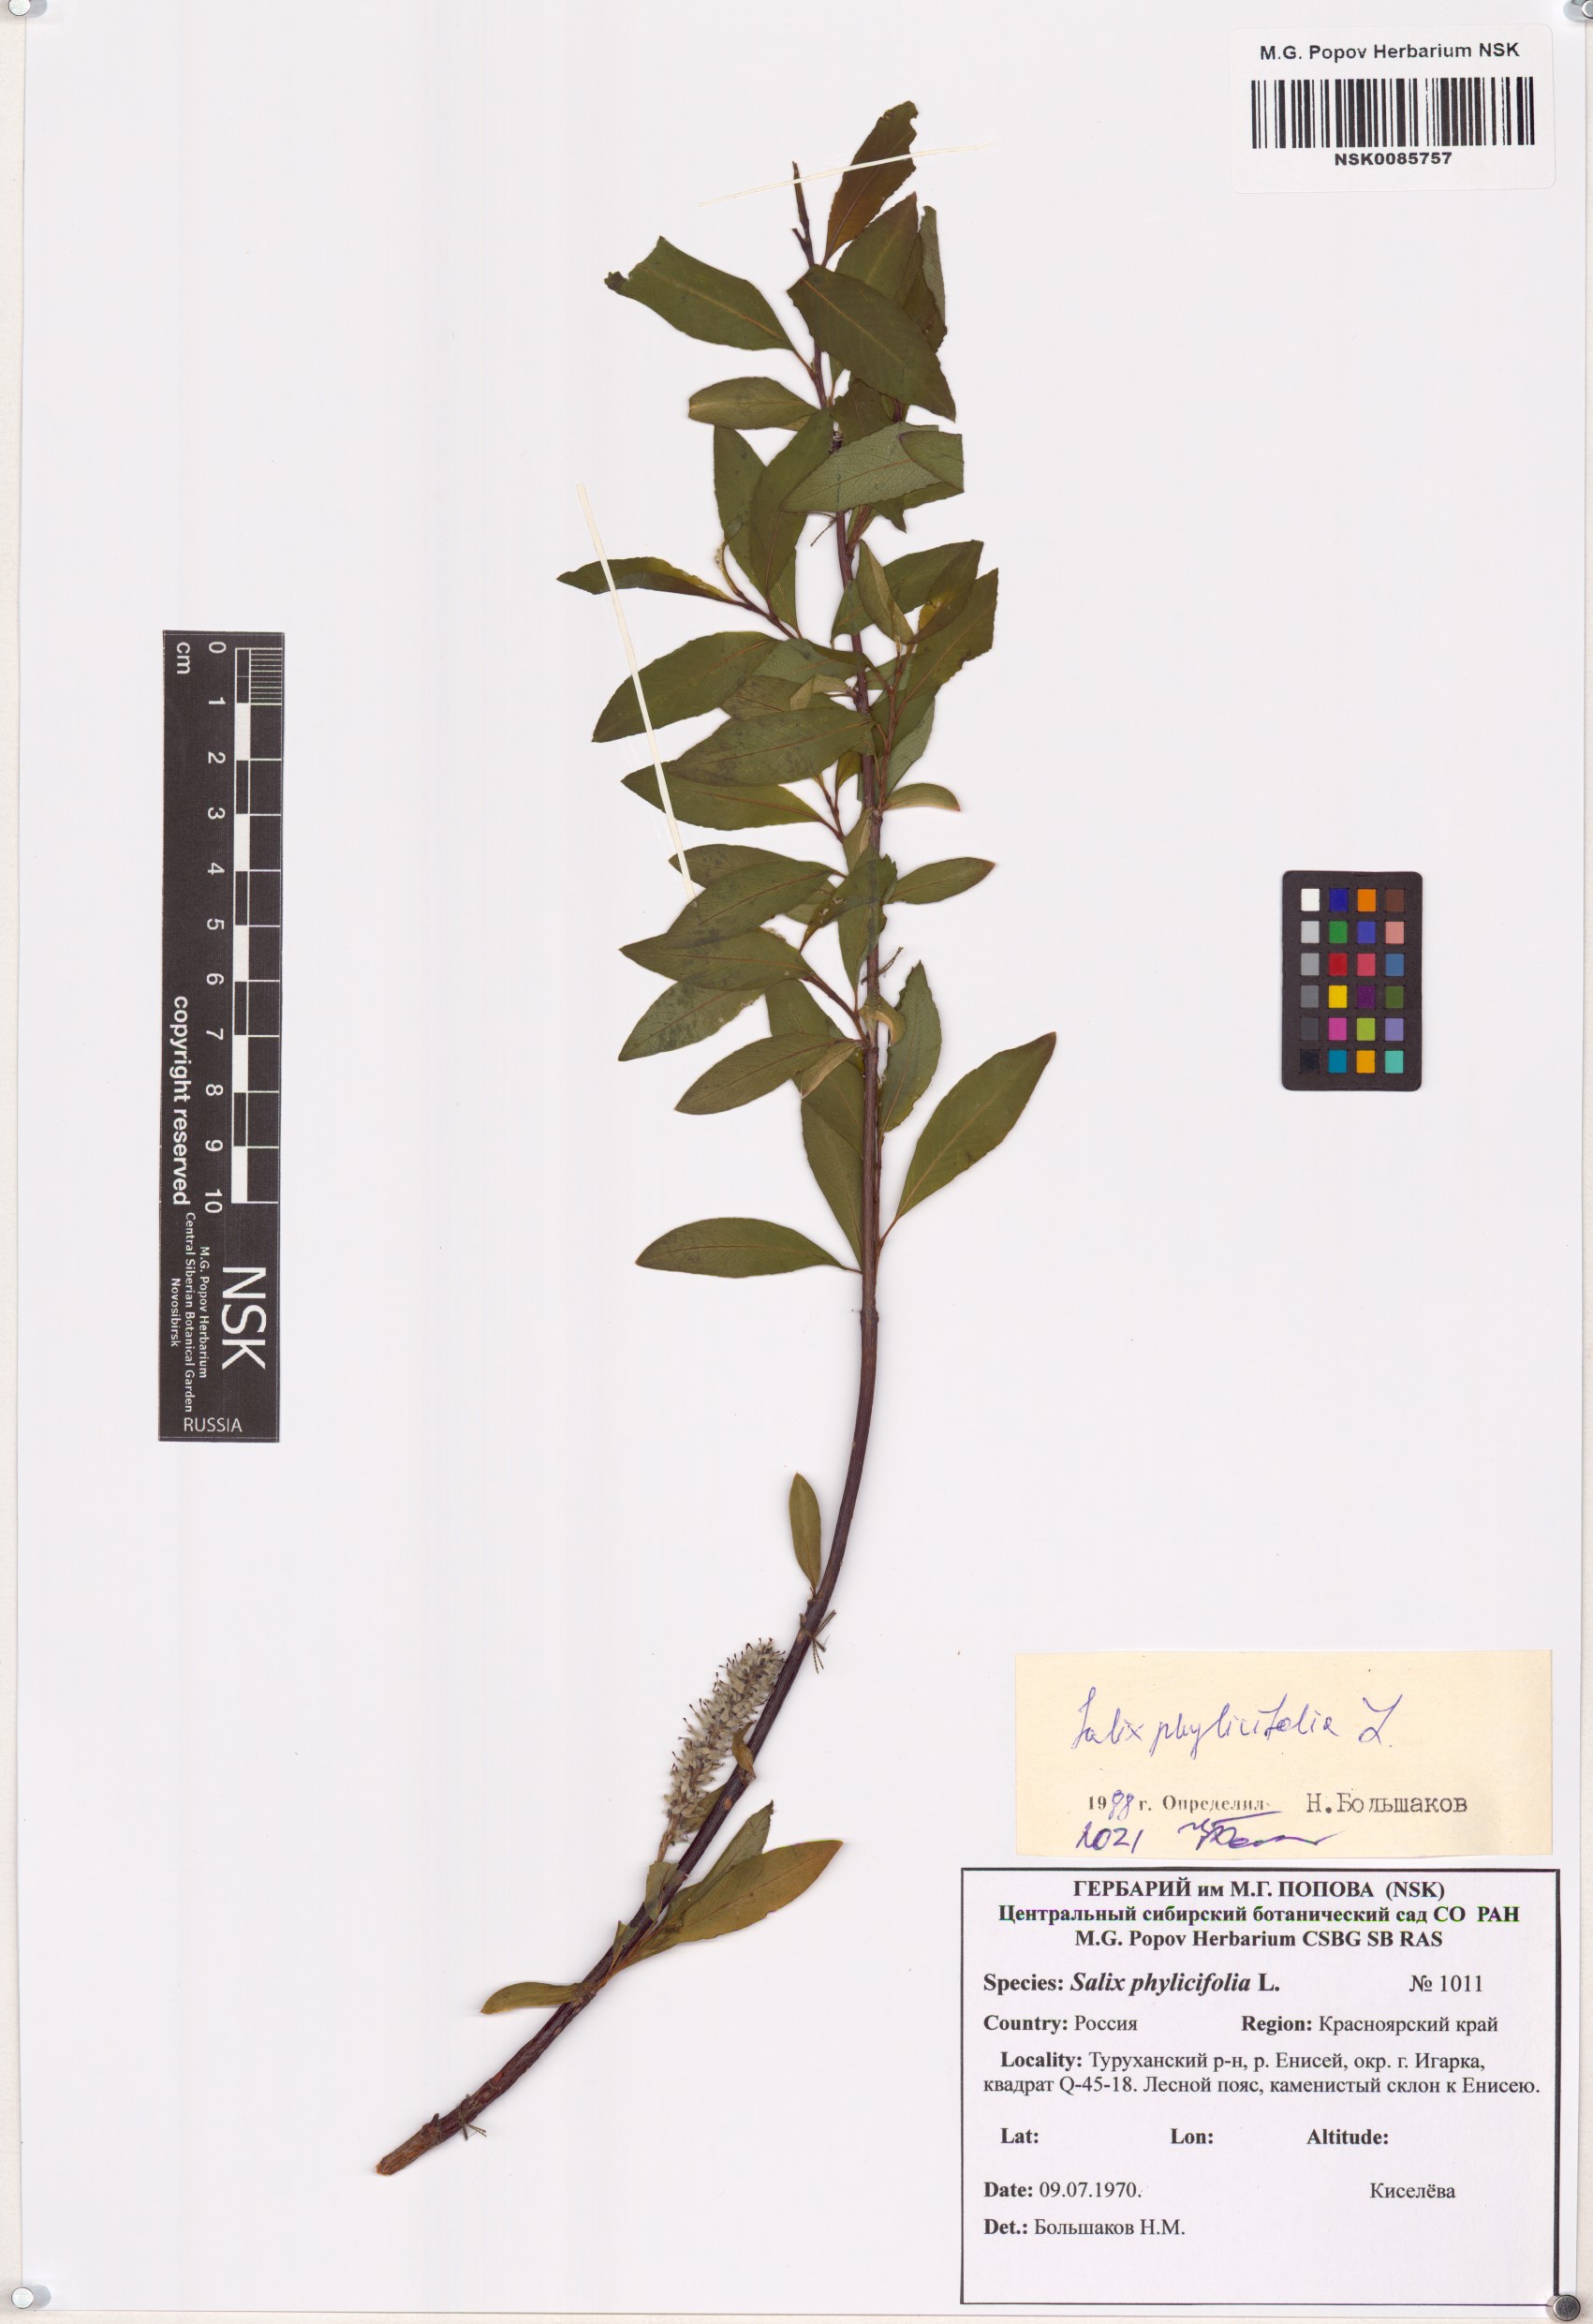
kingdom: Plantae
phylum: Tracheophyta
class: Magnoliopsida
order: Malpighiales
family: Salicaceae
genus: Salix
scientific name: Salix phylicifolia
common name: Tea-leaved willow
